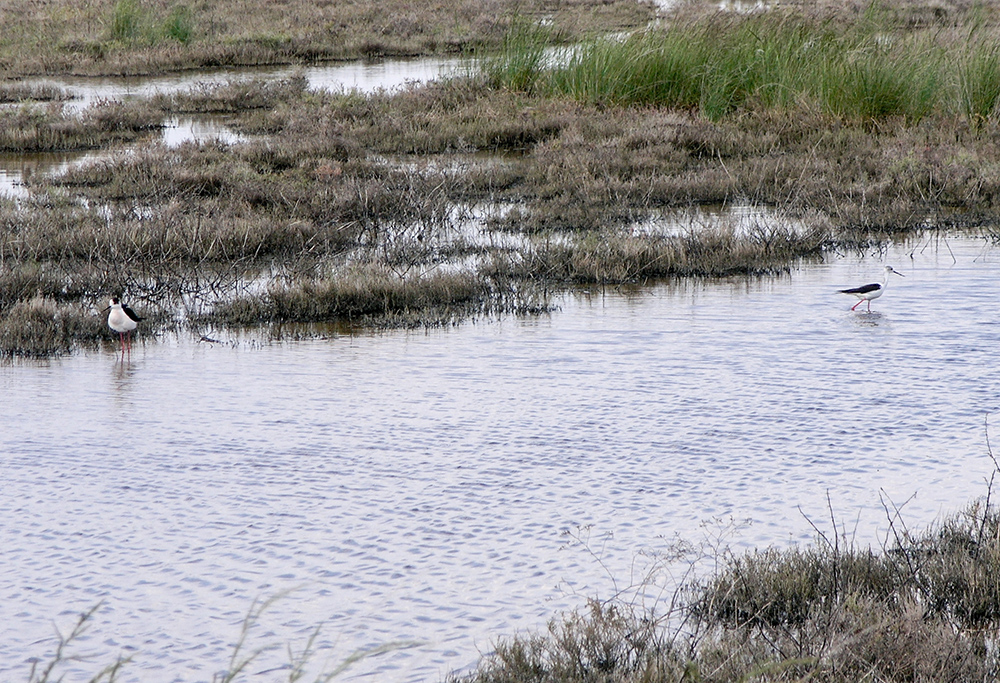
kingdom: Animalia
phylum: Chordata
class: Aves
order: Charadriiformes
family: Recurvirostridae
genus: Himantopus
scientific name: Himantopus himantopus
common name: Black-winged stilt
